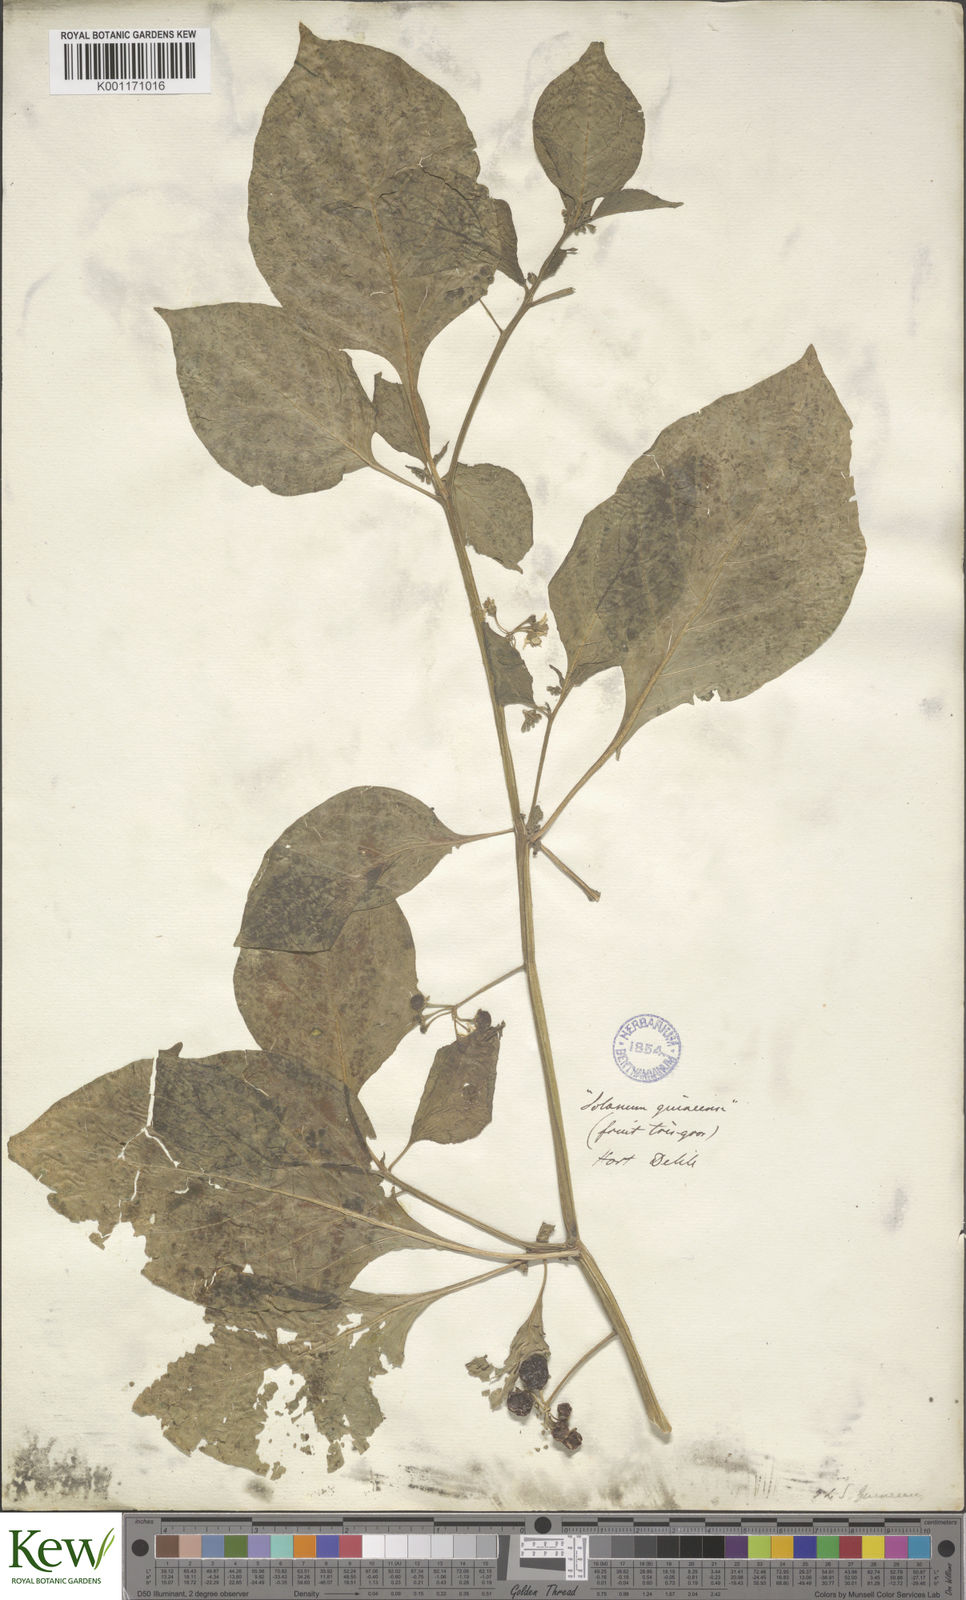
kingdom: Plantae
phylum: Tracheophyta
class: Magnoliopsida
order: Solanales
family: Solanaceae
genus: Solanum
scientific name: Solanum
